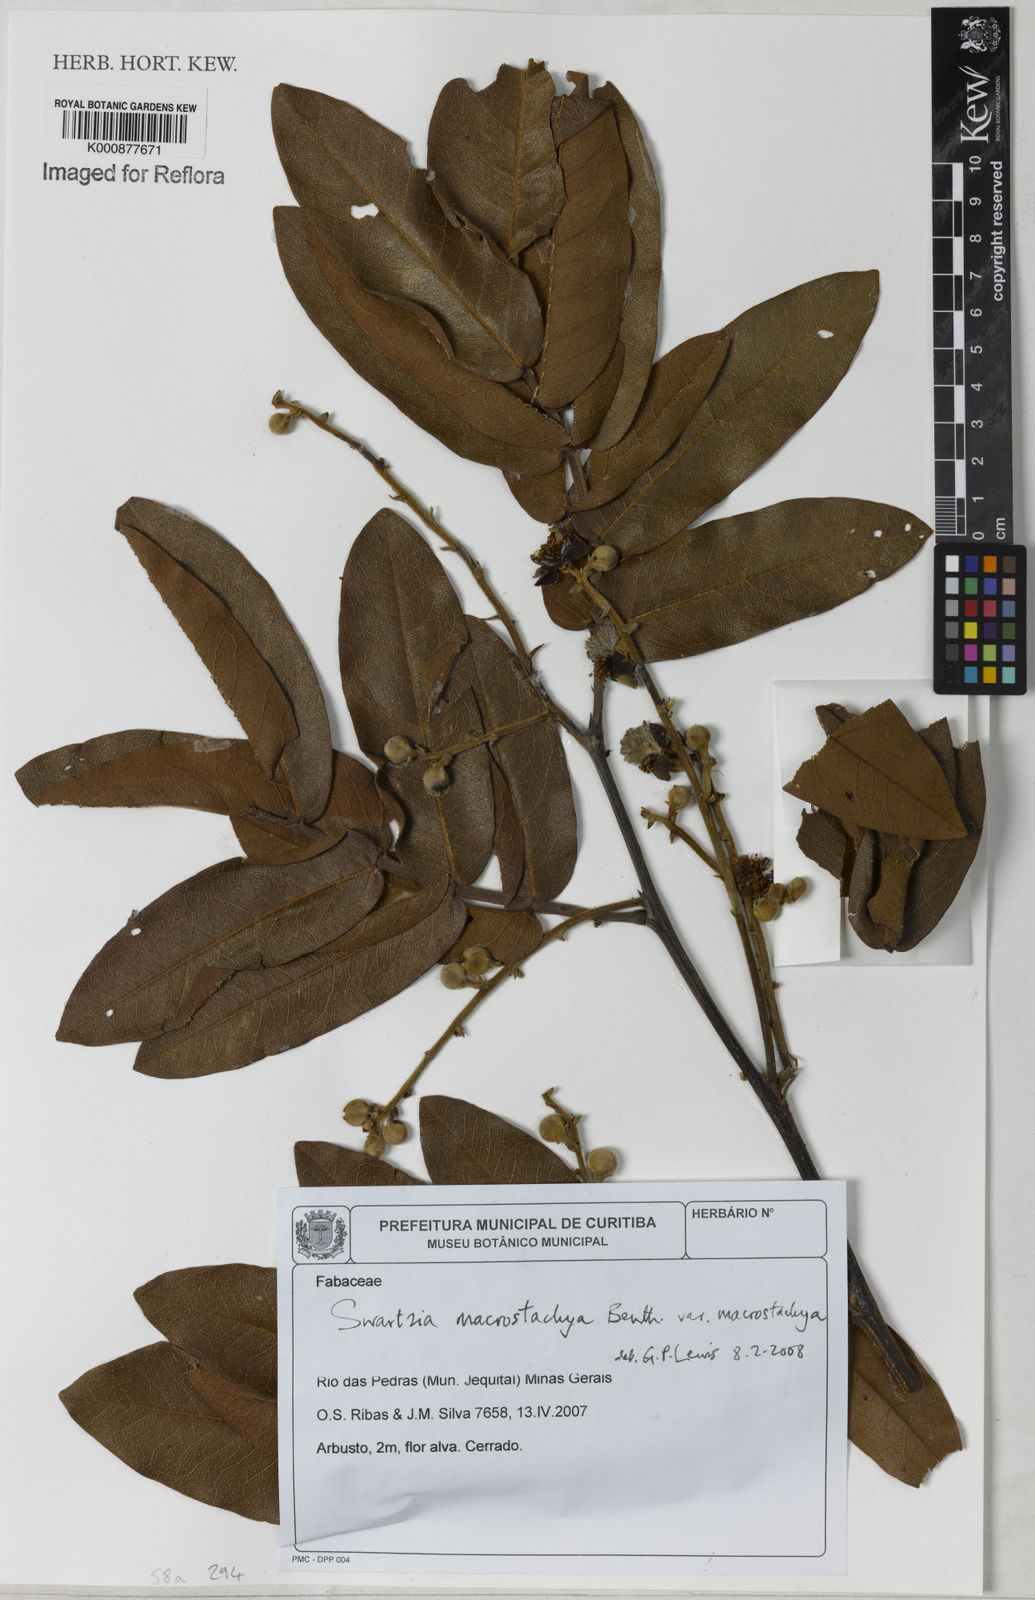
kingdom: Plantae
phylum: Tracheophyta
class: Magnoliopsida
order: Fabales
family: Fabaceae
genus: Swartzia
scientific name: Swartzia macrostachya
